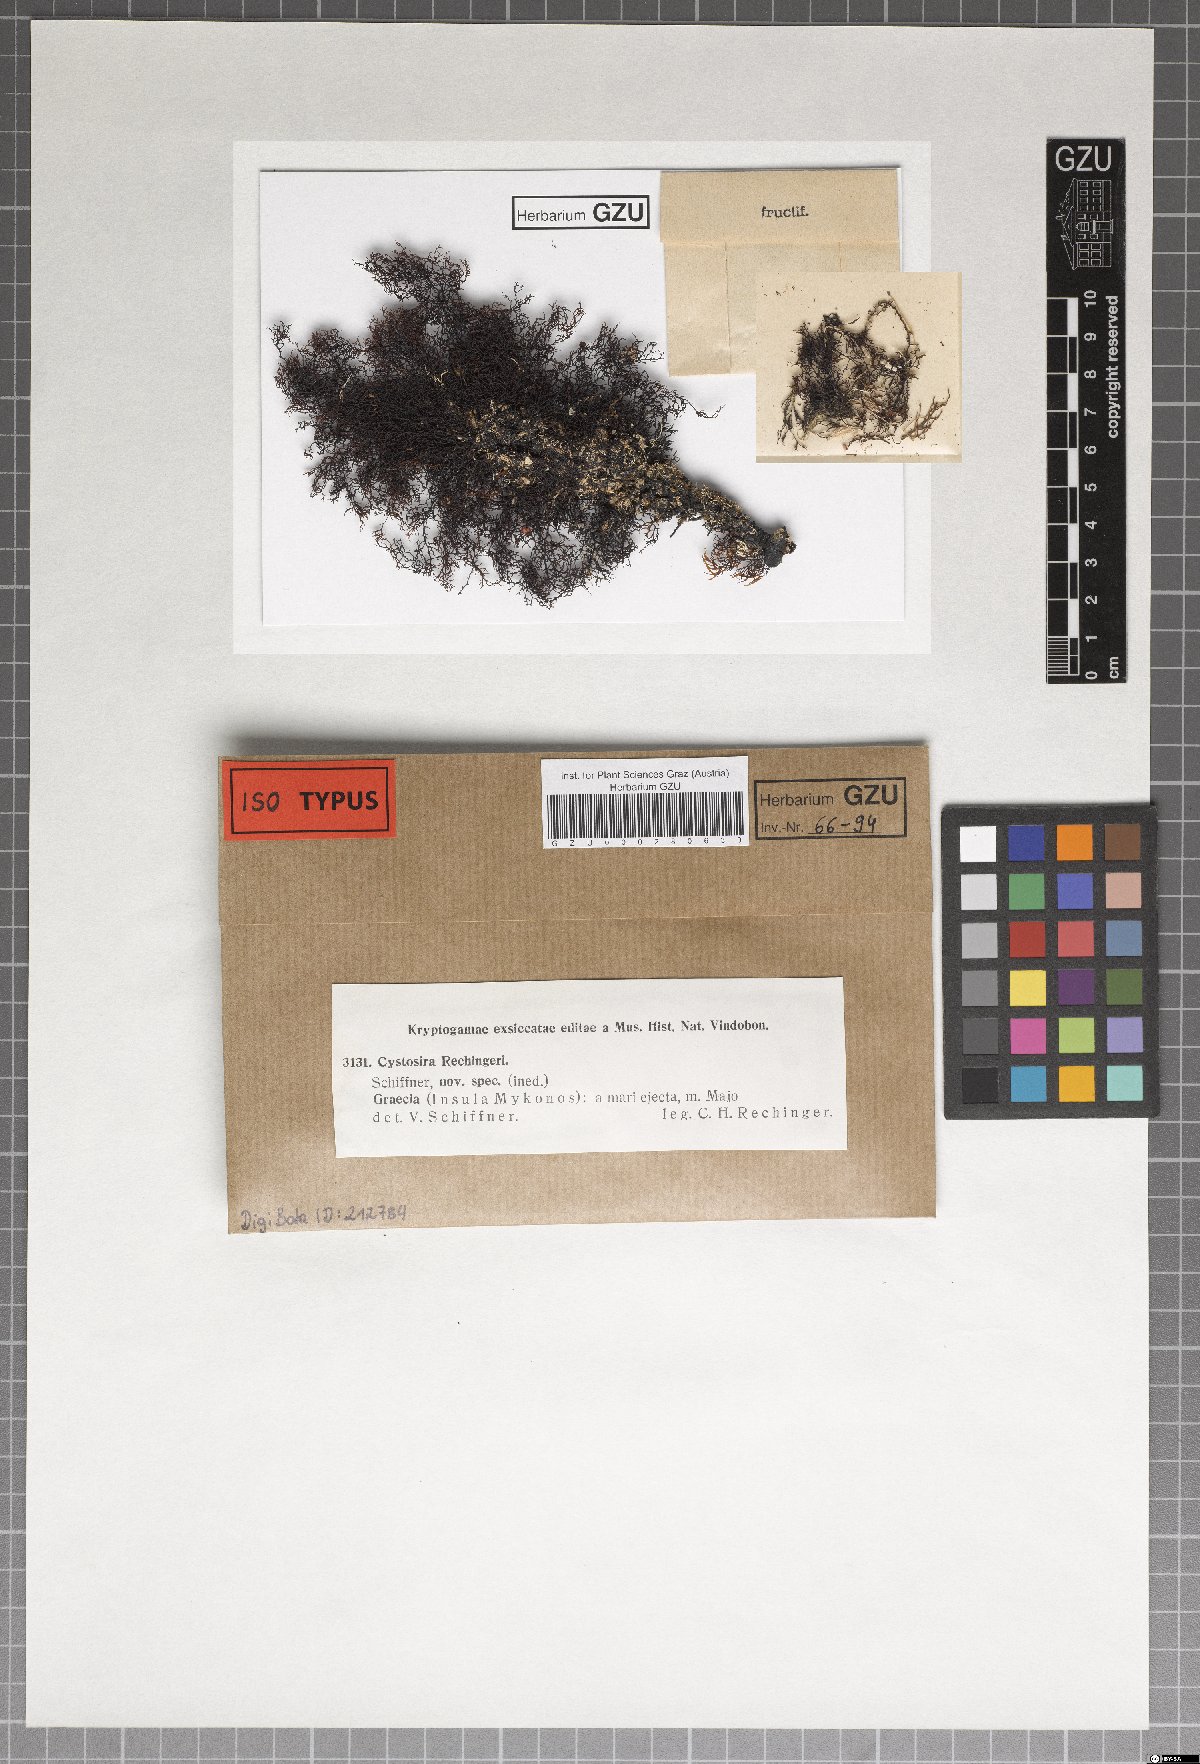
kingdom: Chromista
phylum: Ochrophyta
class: Phaeophyceae
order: Fucales
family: Sargassaceae
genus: Cystoseira
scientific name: Cystoseira Gongolaria montagnei
